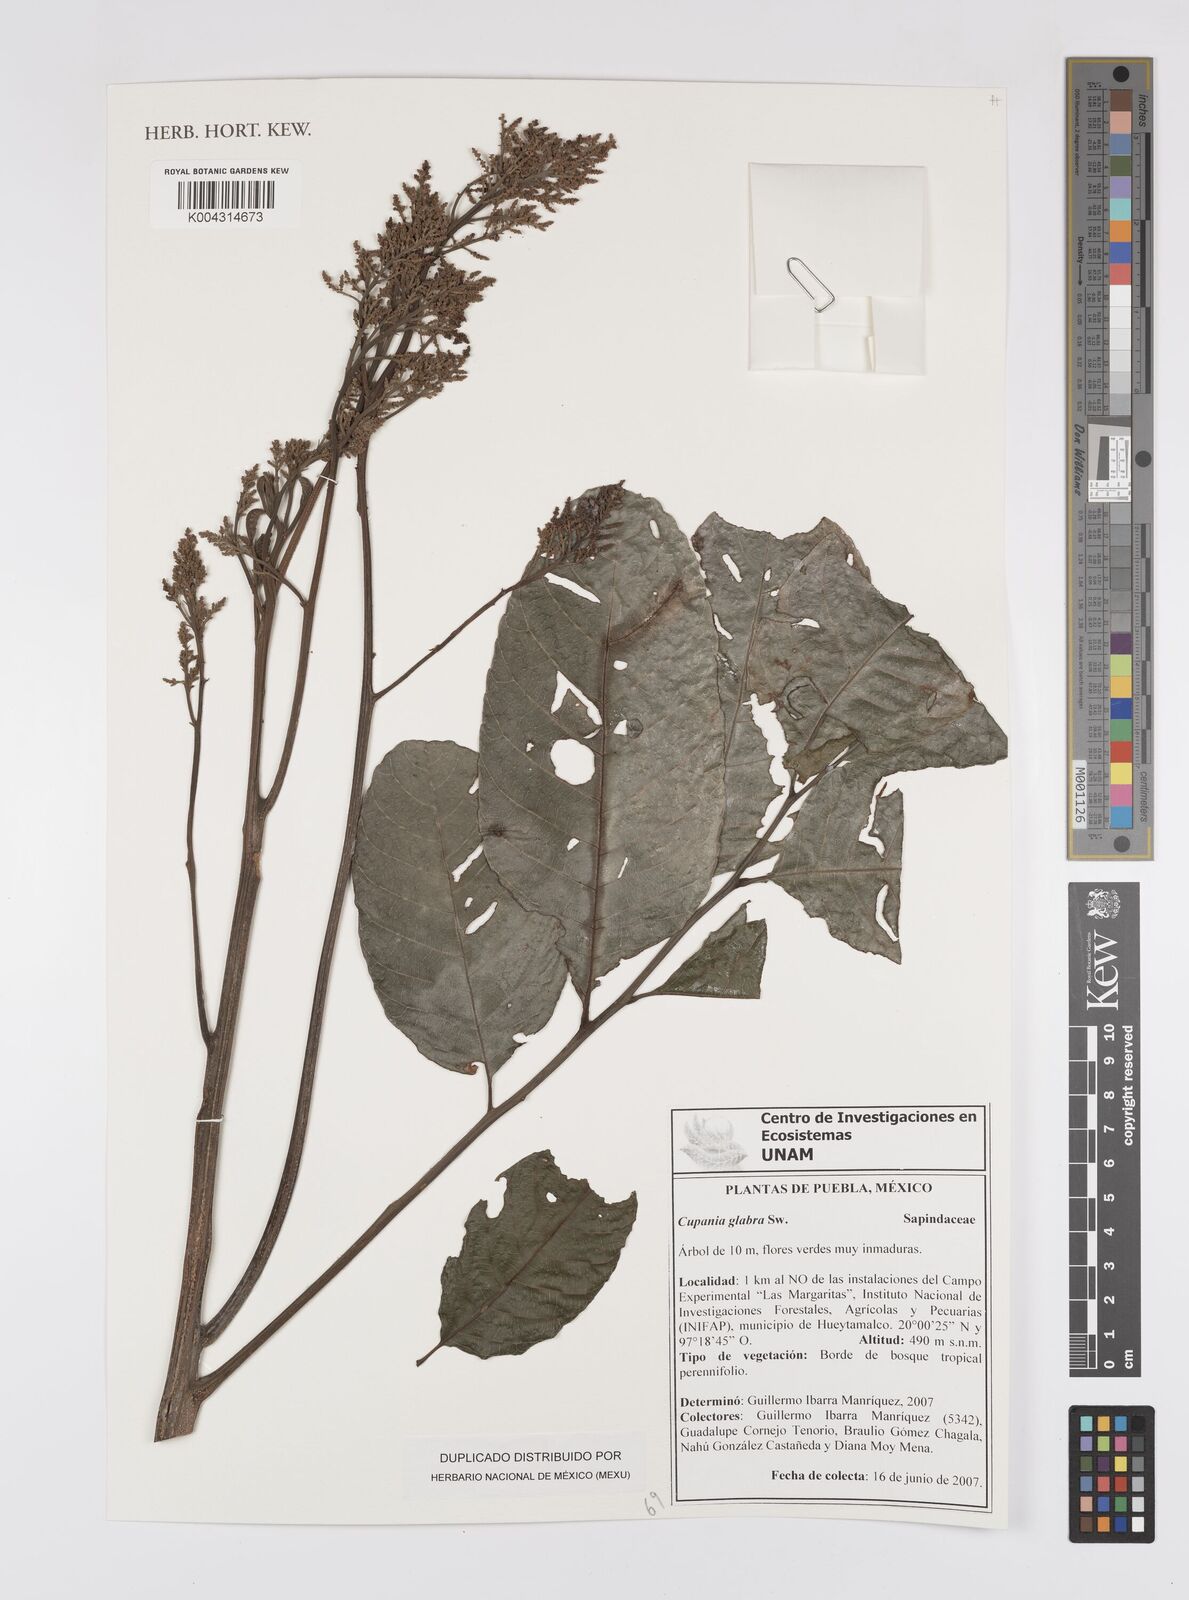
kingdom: Plantae
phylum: Tracheophyta
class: Magnoliopsida
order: Sapindales
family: Sapindaceae
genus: Cupania
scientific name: Cupania
